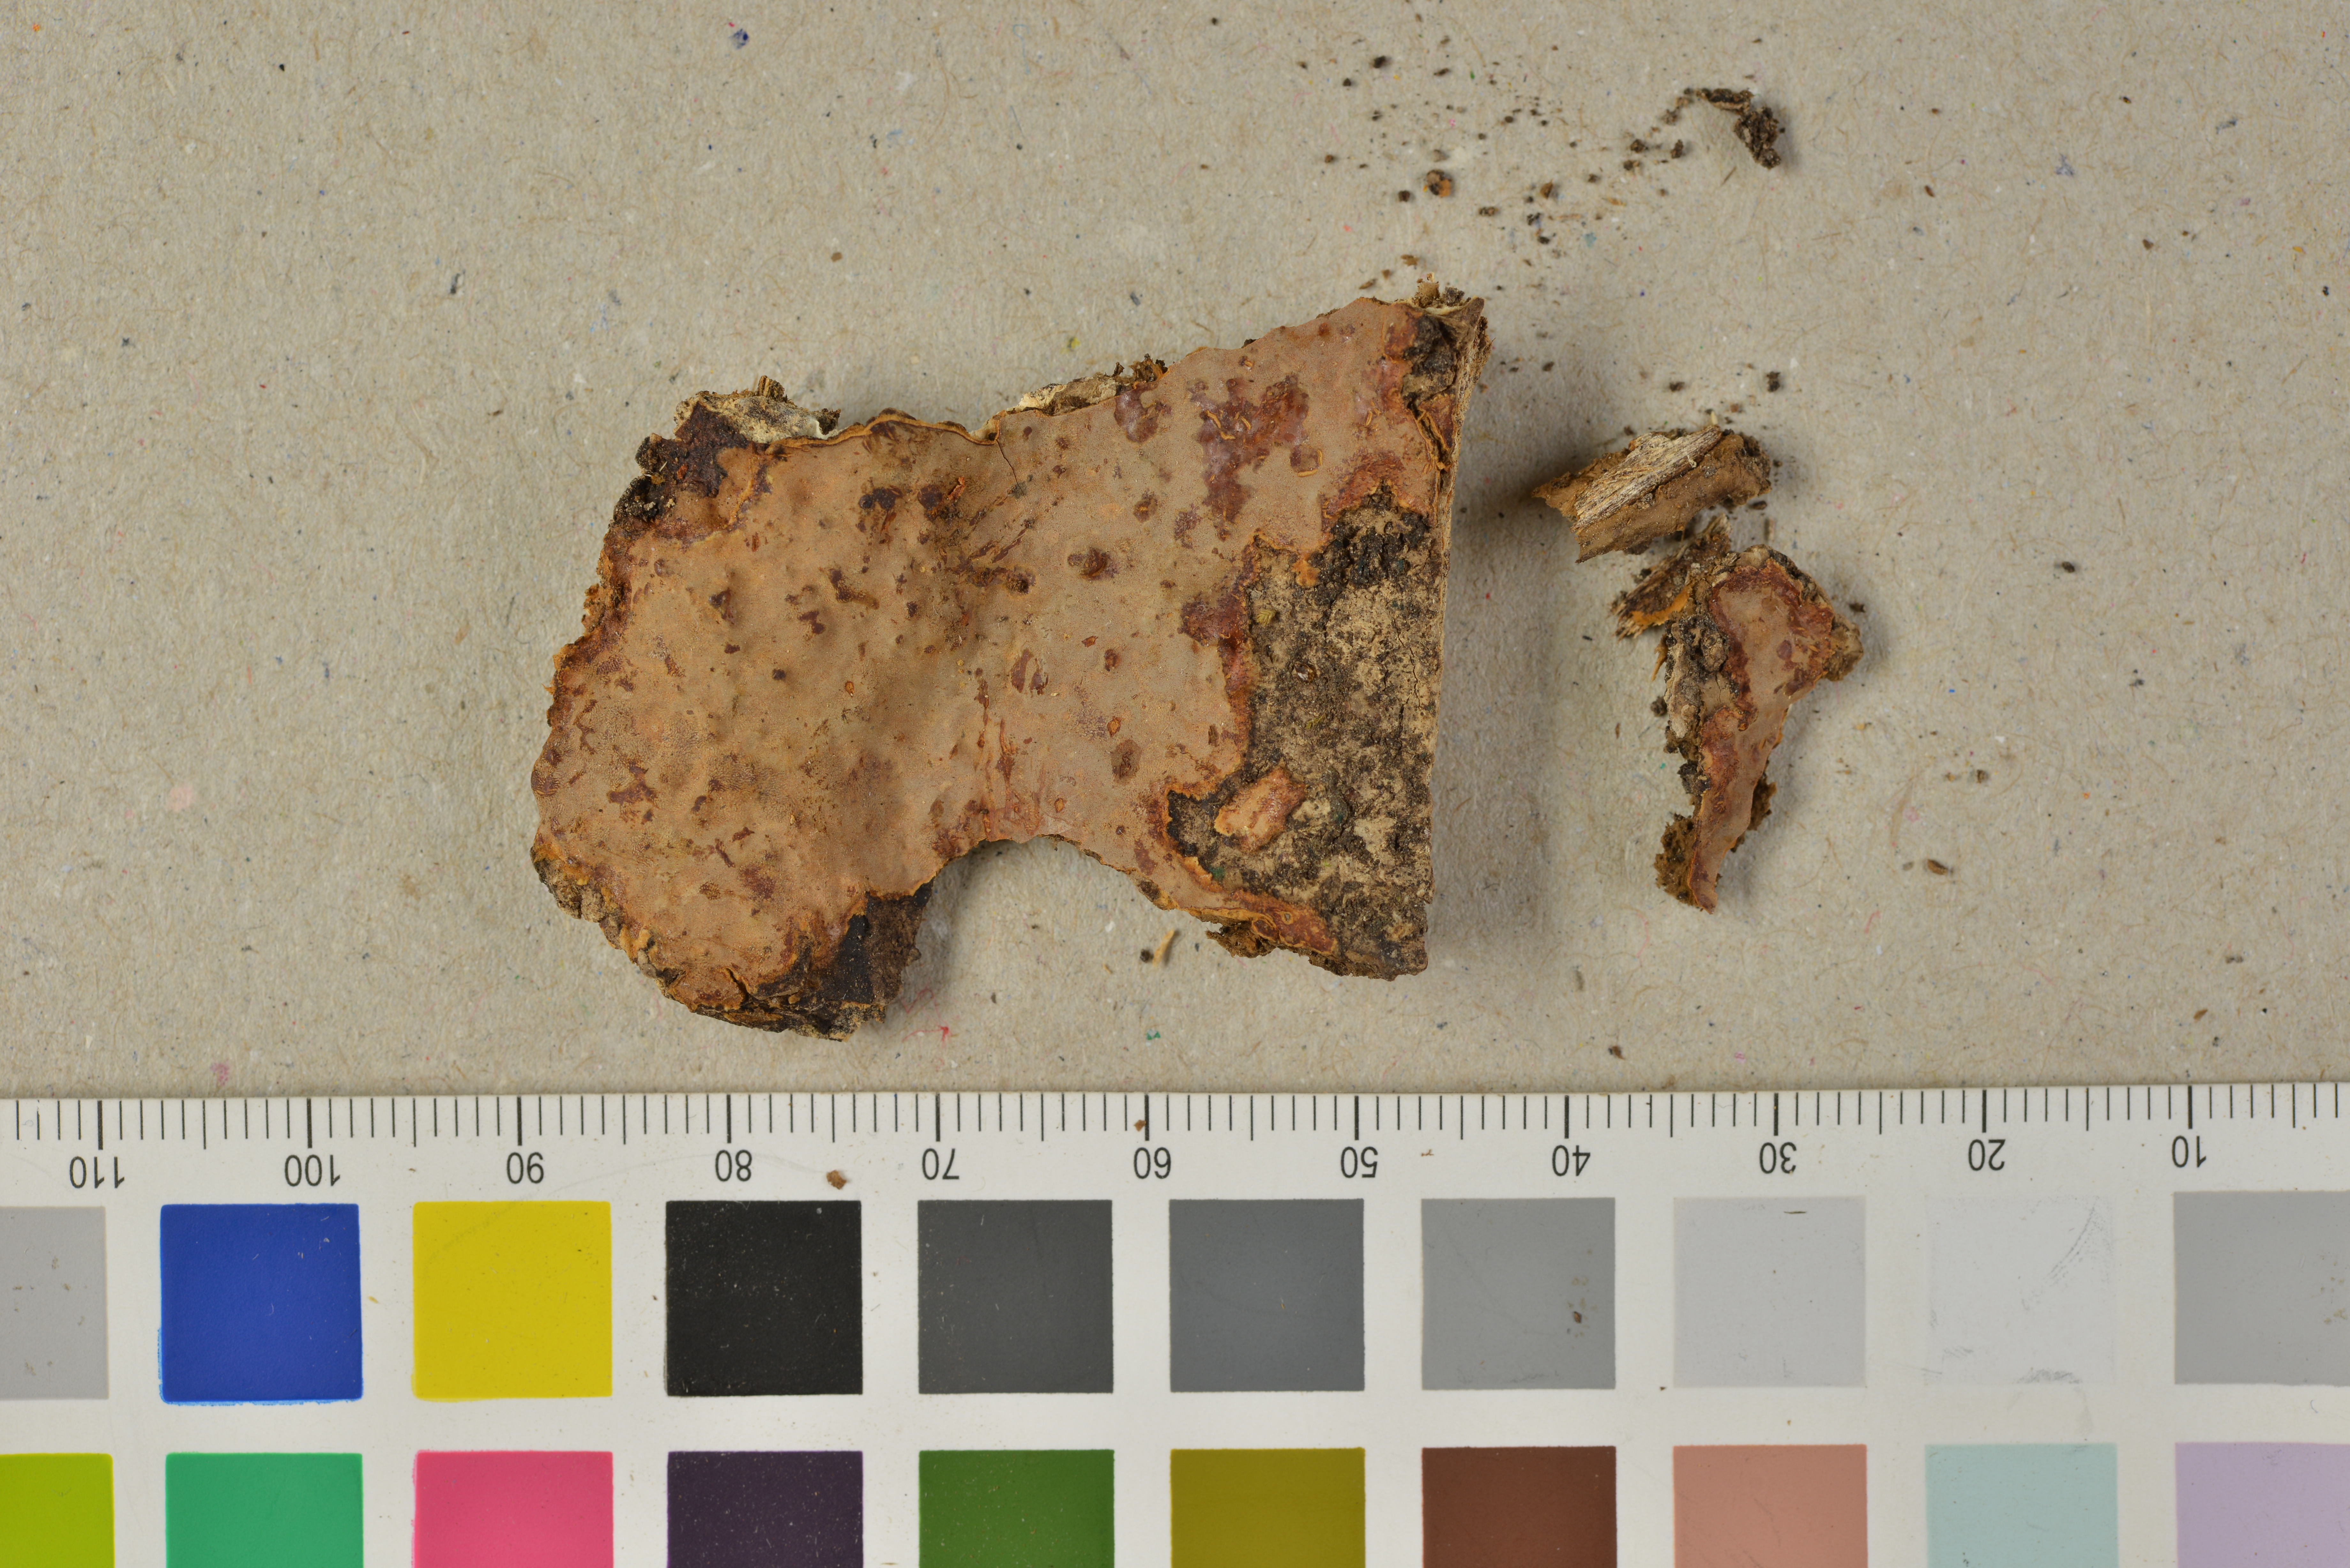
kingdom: Fungi
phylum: Basidiomycota
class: Agaricomycetes
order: Polyporales
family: Phanerochaetaceae
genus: Australicium
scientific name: Australicium cylindrosporum
